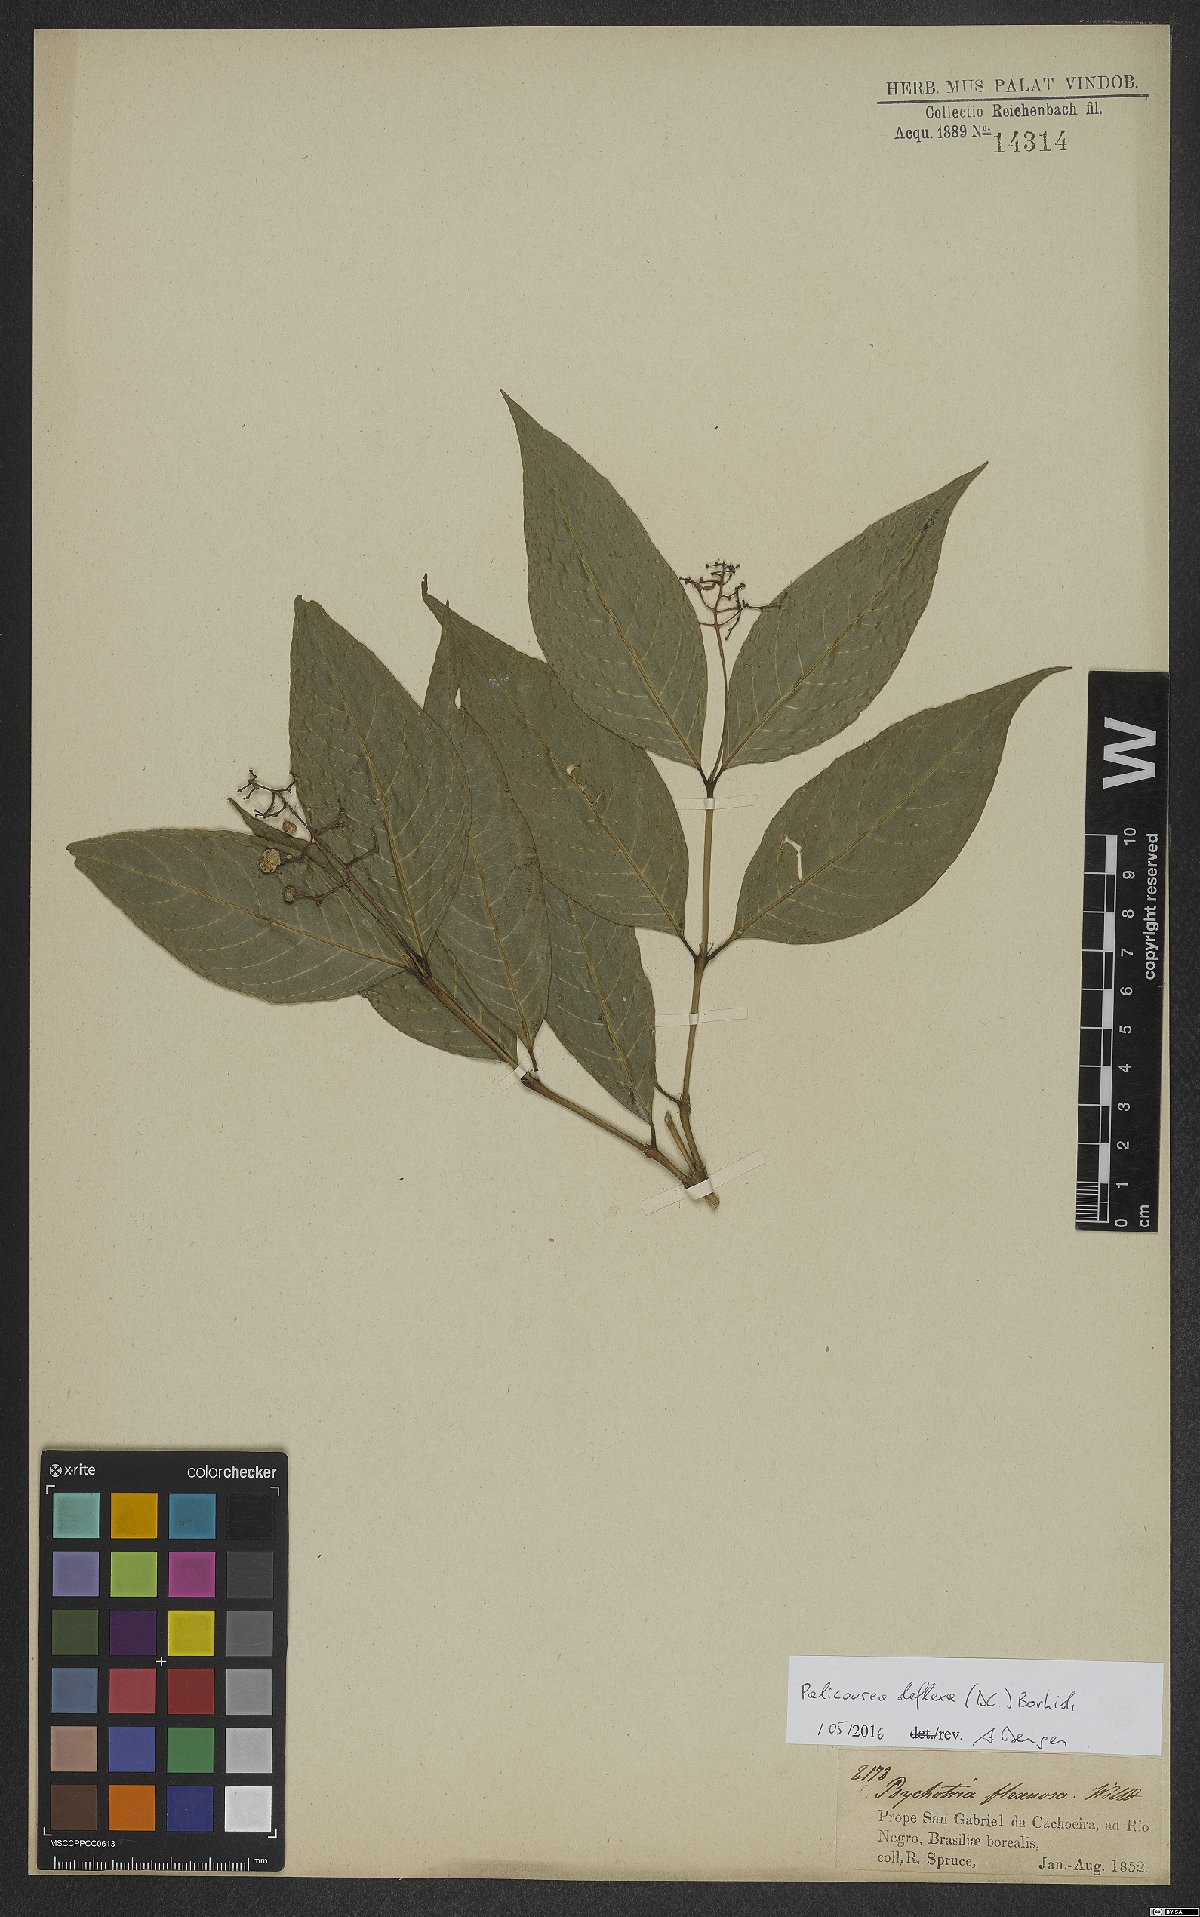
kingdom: Plantae
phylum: Tracheophyta
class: Magnoliopsida
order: Gentianales
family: Rubiaceae
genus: Palicourea
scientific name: Palicourea deflexa
